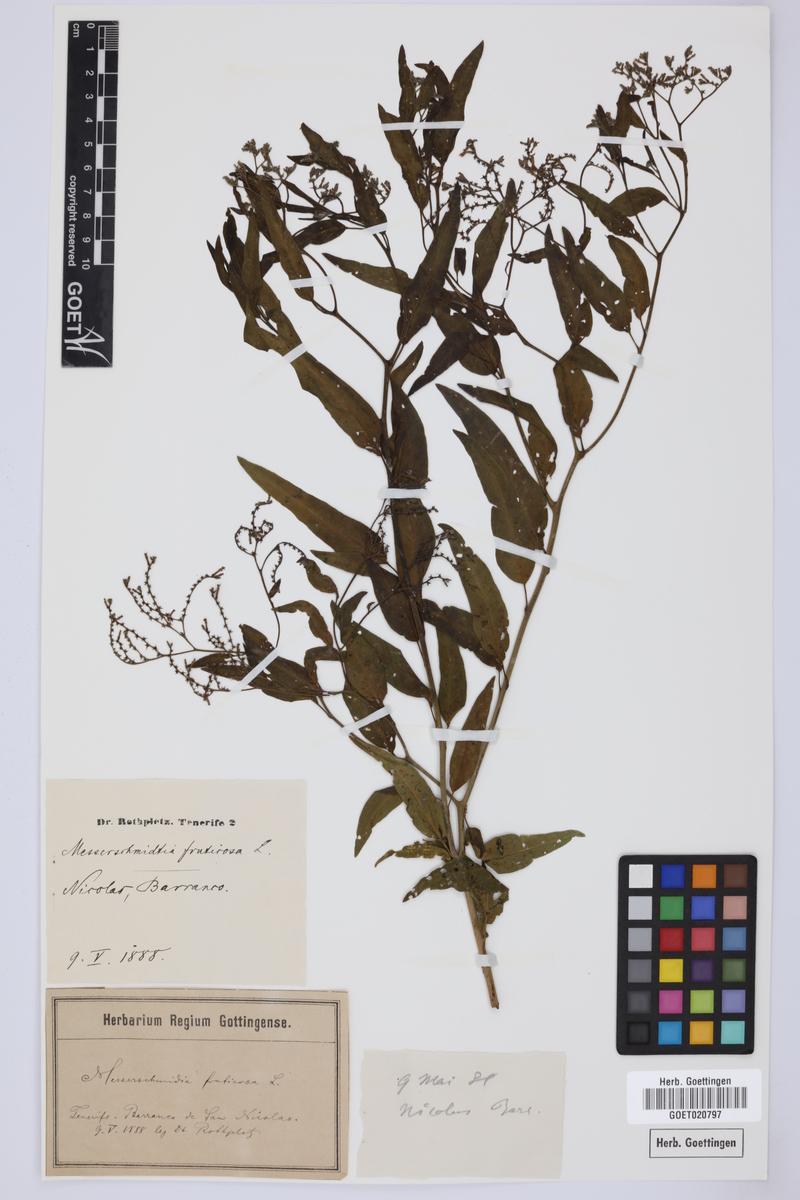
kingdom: Plantae
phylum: Tracheophyta
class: Magnoliopsida
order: Boraginales
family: Heliotropiaceae
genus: Heliotropium
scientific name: Heliotropium messerschmidioides
